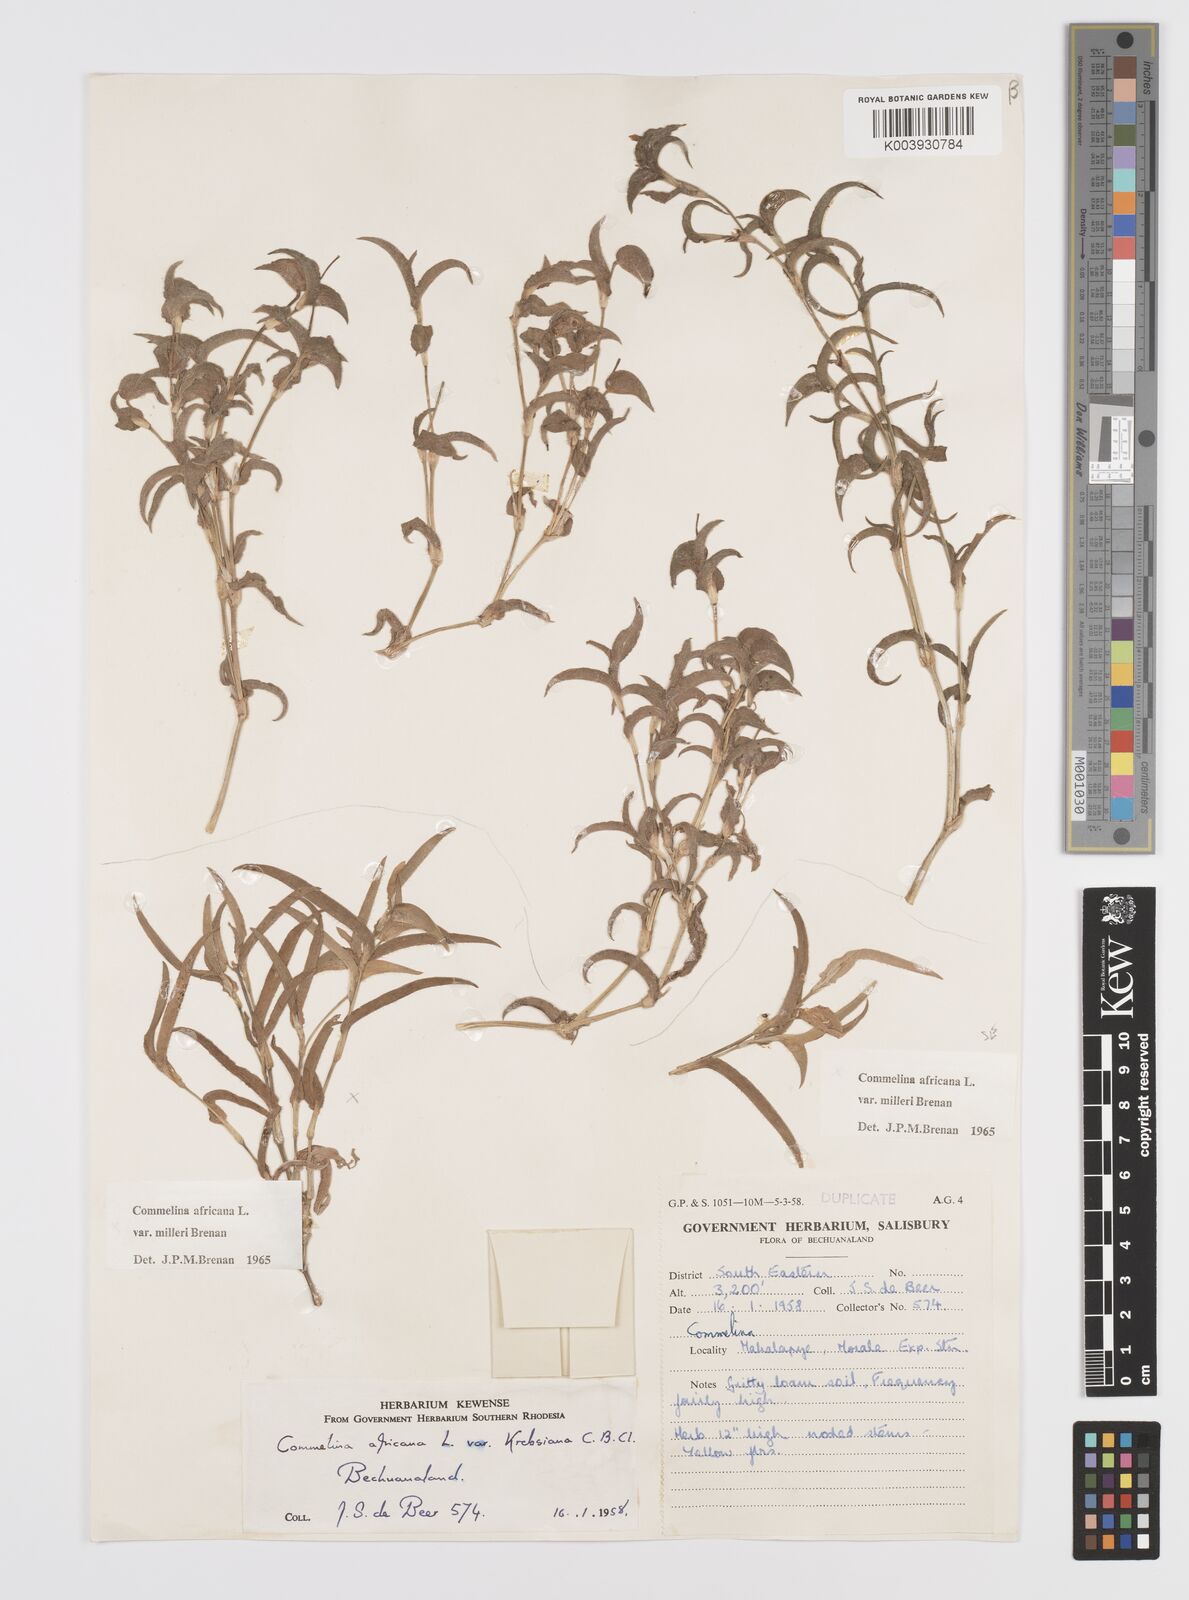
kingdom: Plantae
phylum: Tracheophyta
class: Liliopsida
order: Commelinales
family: Commelinaceae
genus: Commelina
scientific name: Commelina africana
